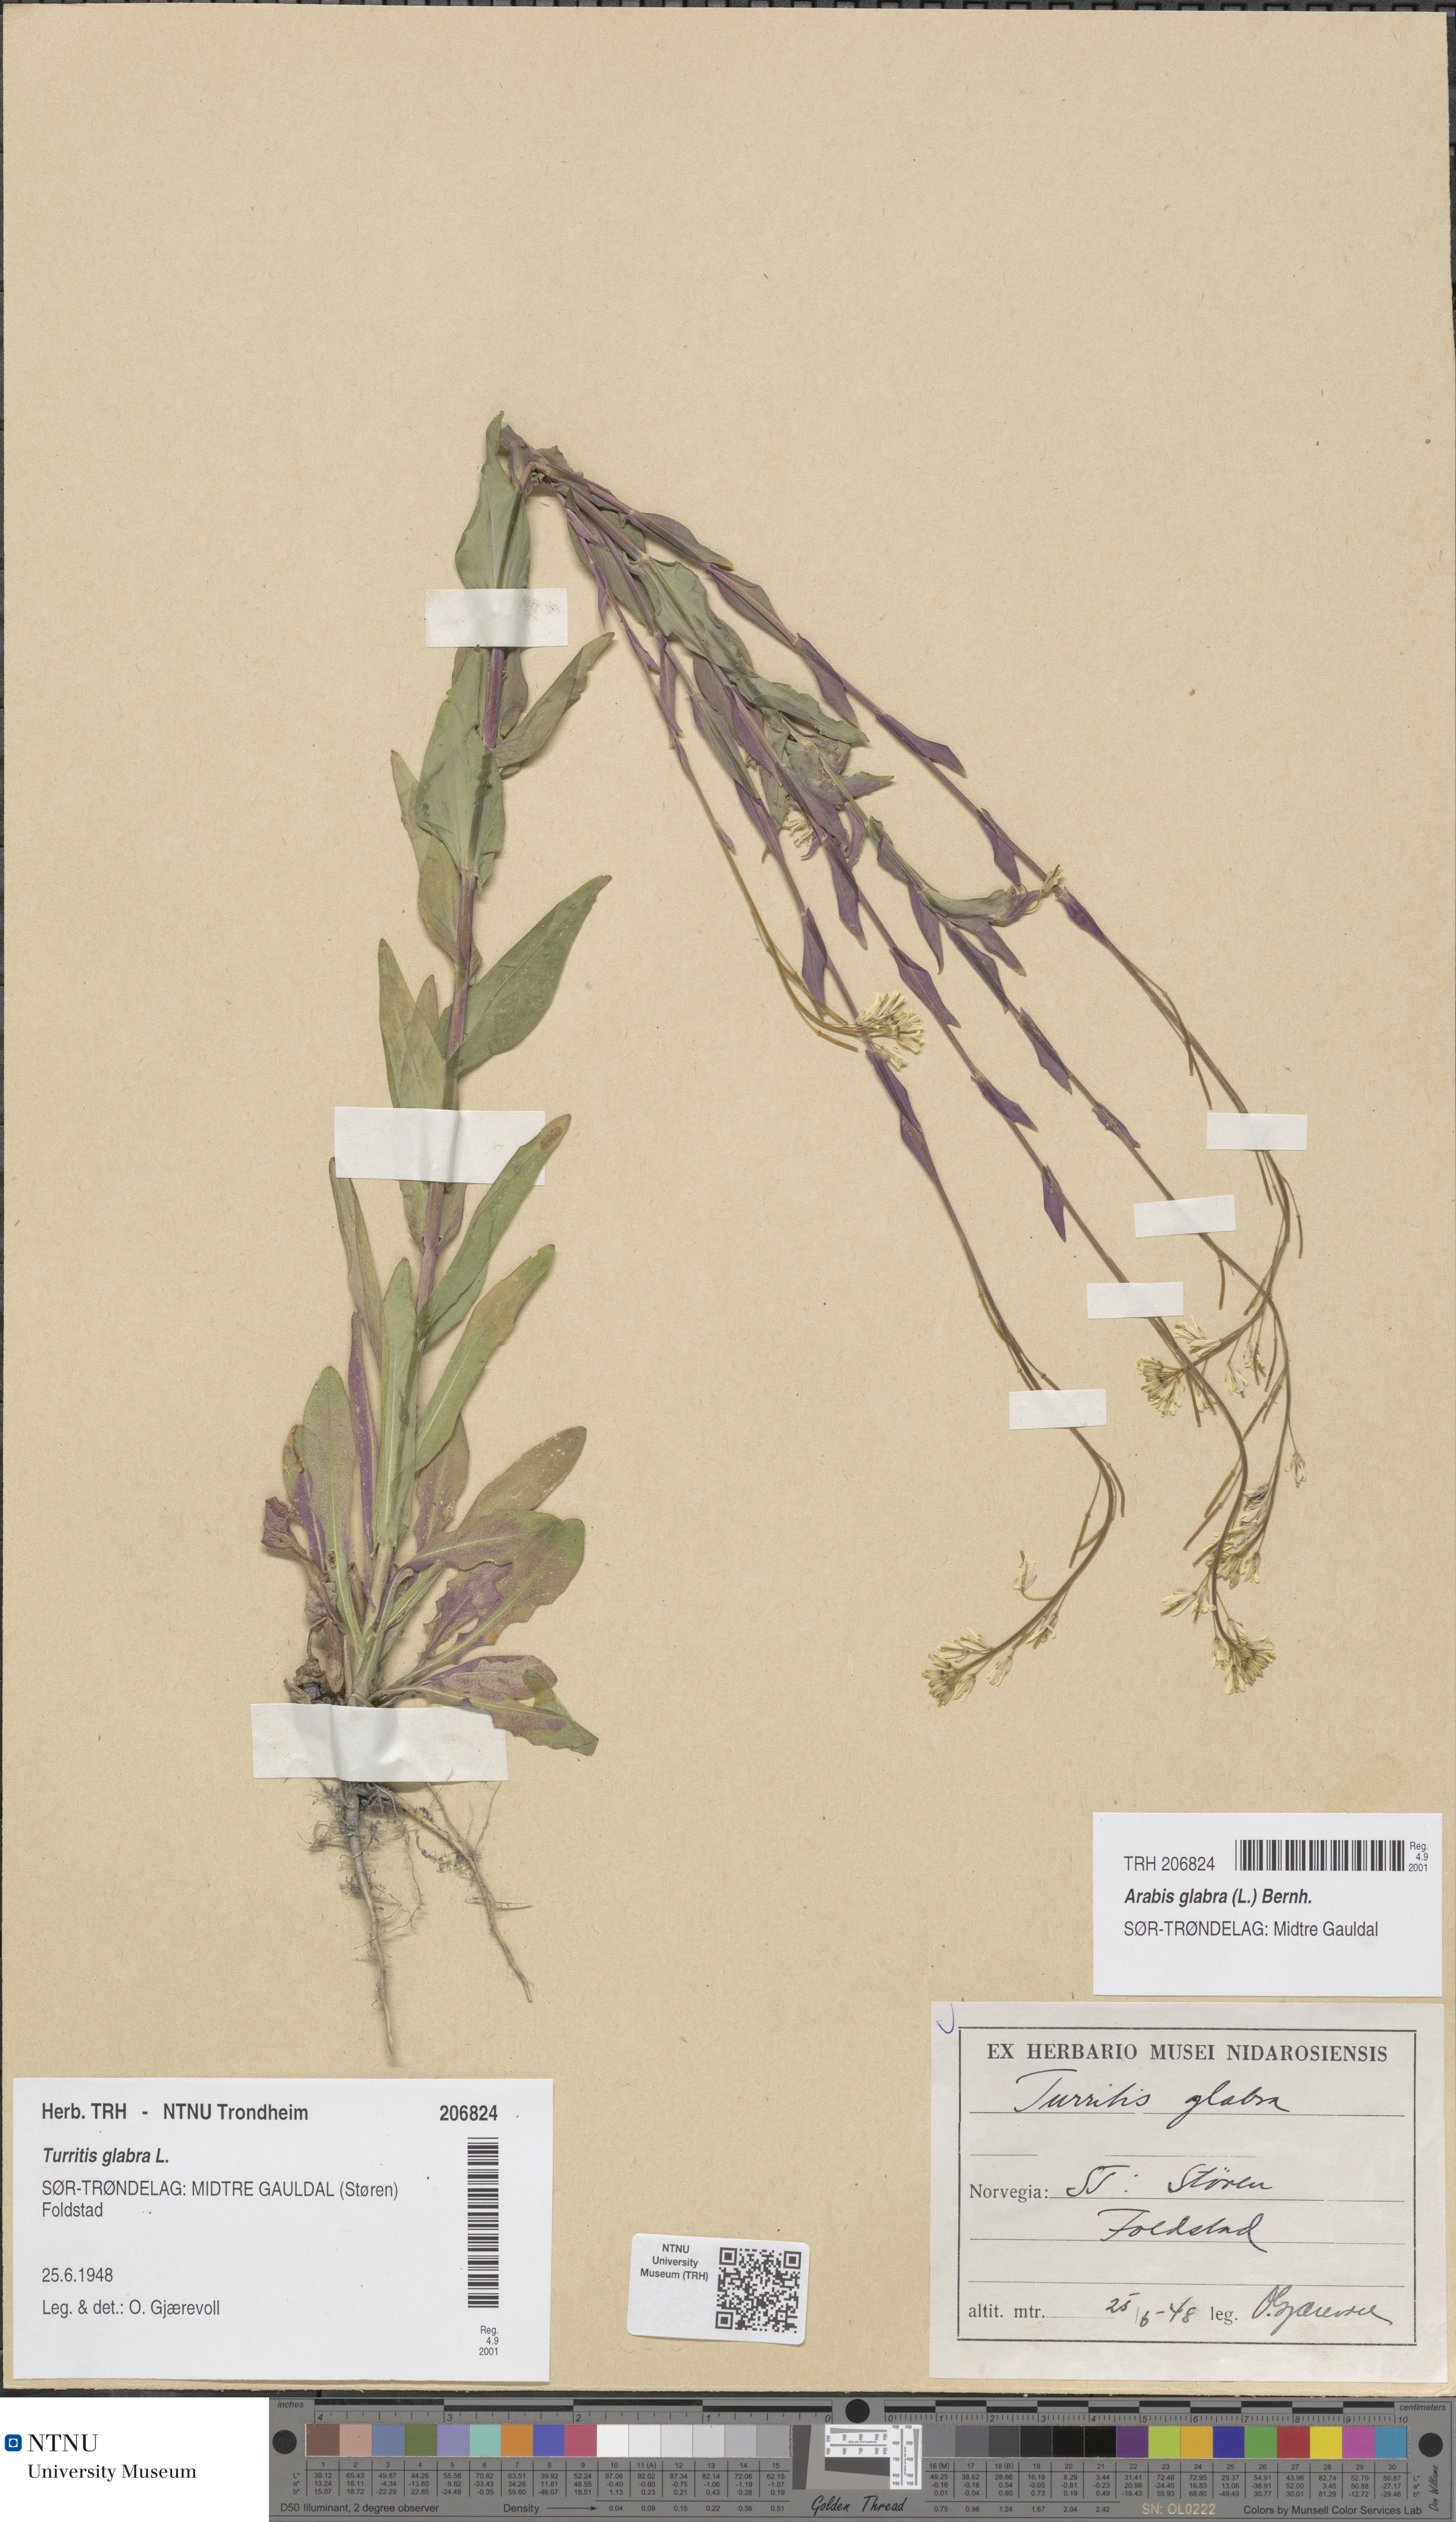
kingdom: Plantae
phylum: Tracheophyta
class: Magnoliopsida
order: Brassicales
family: Brassicaceae
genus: Turritis
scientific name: Turritis glabra
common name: Tower rockcress
